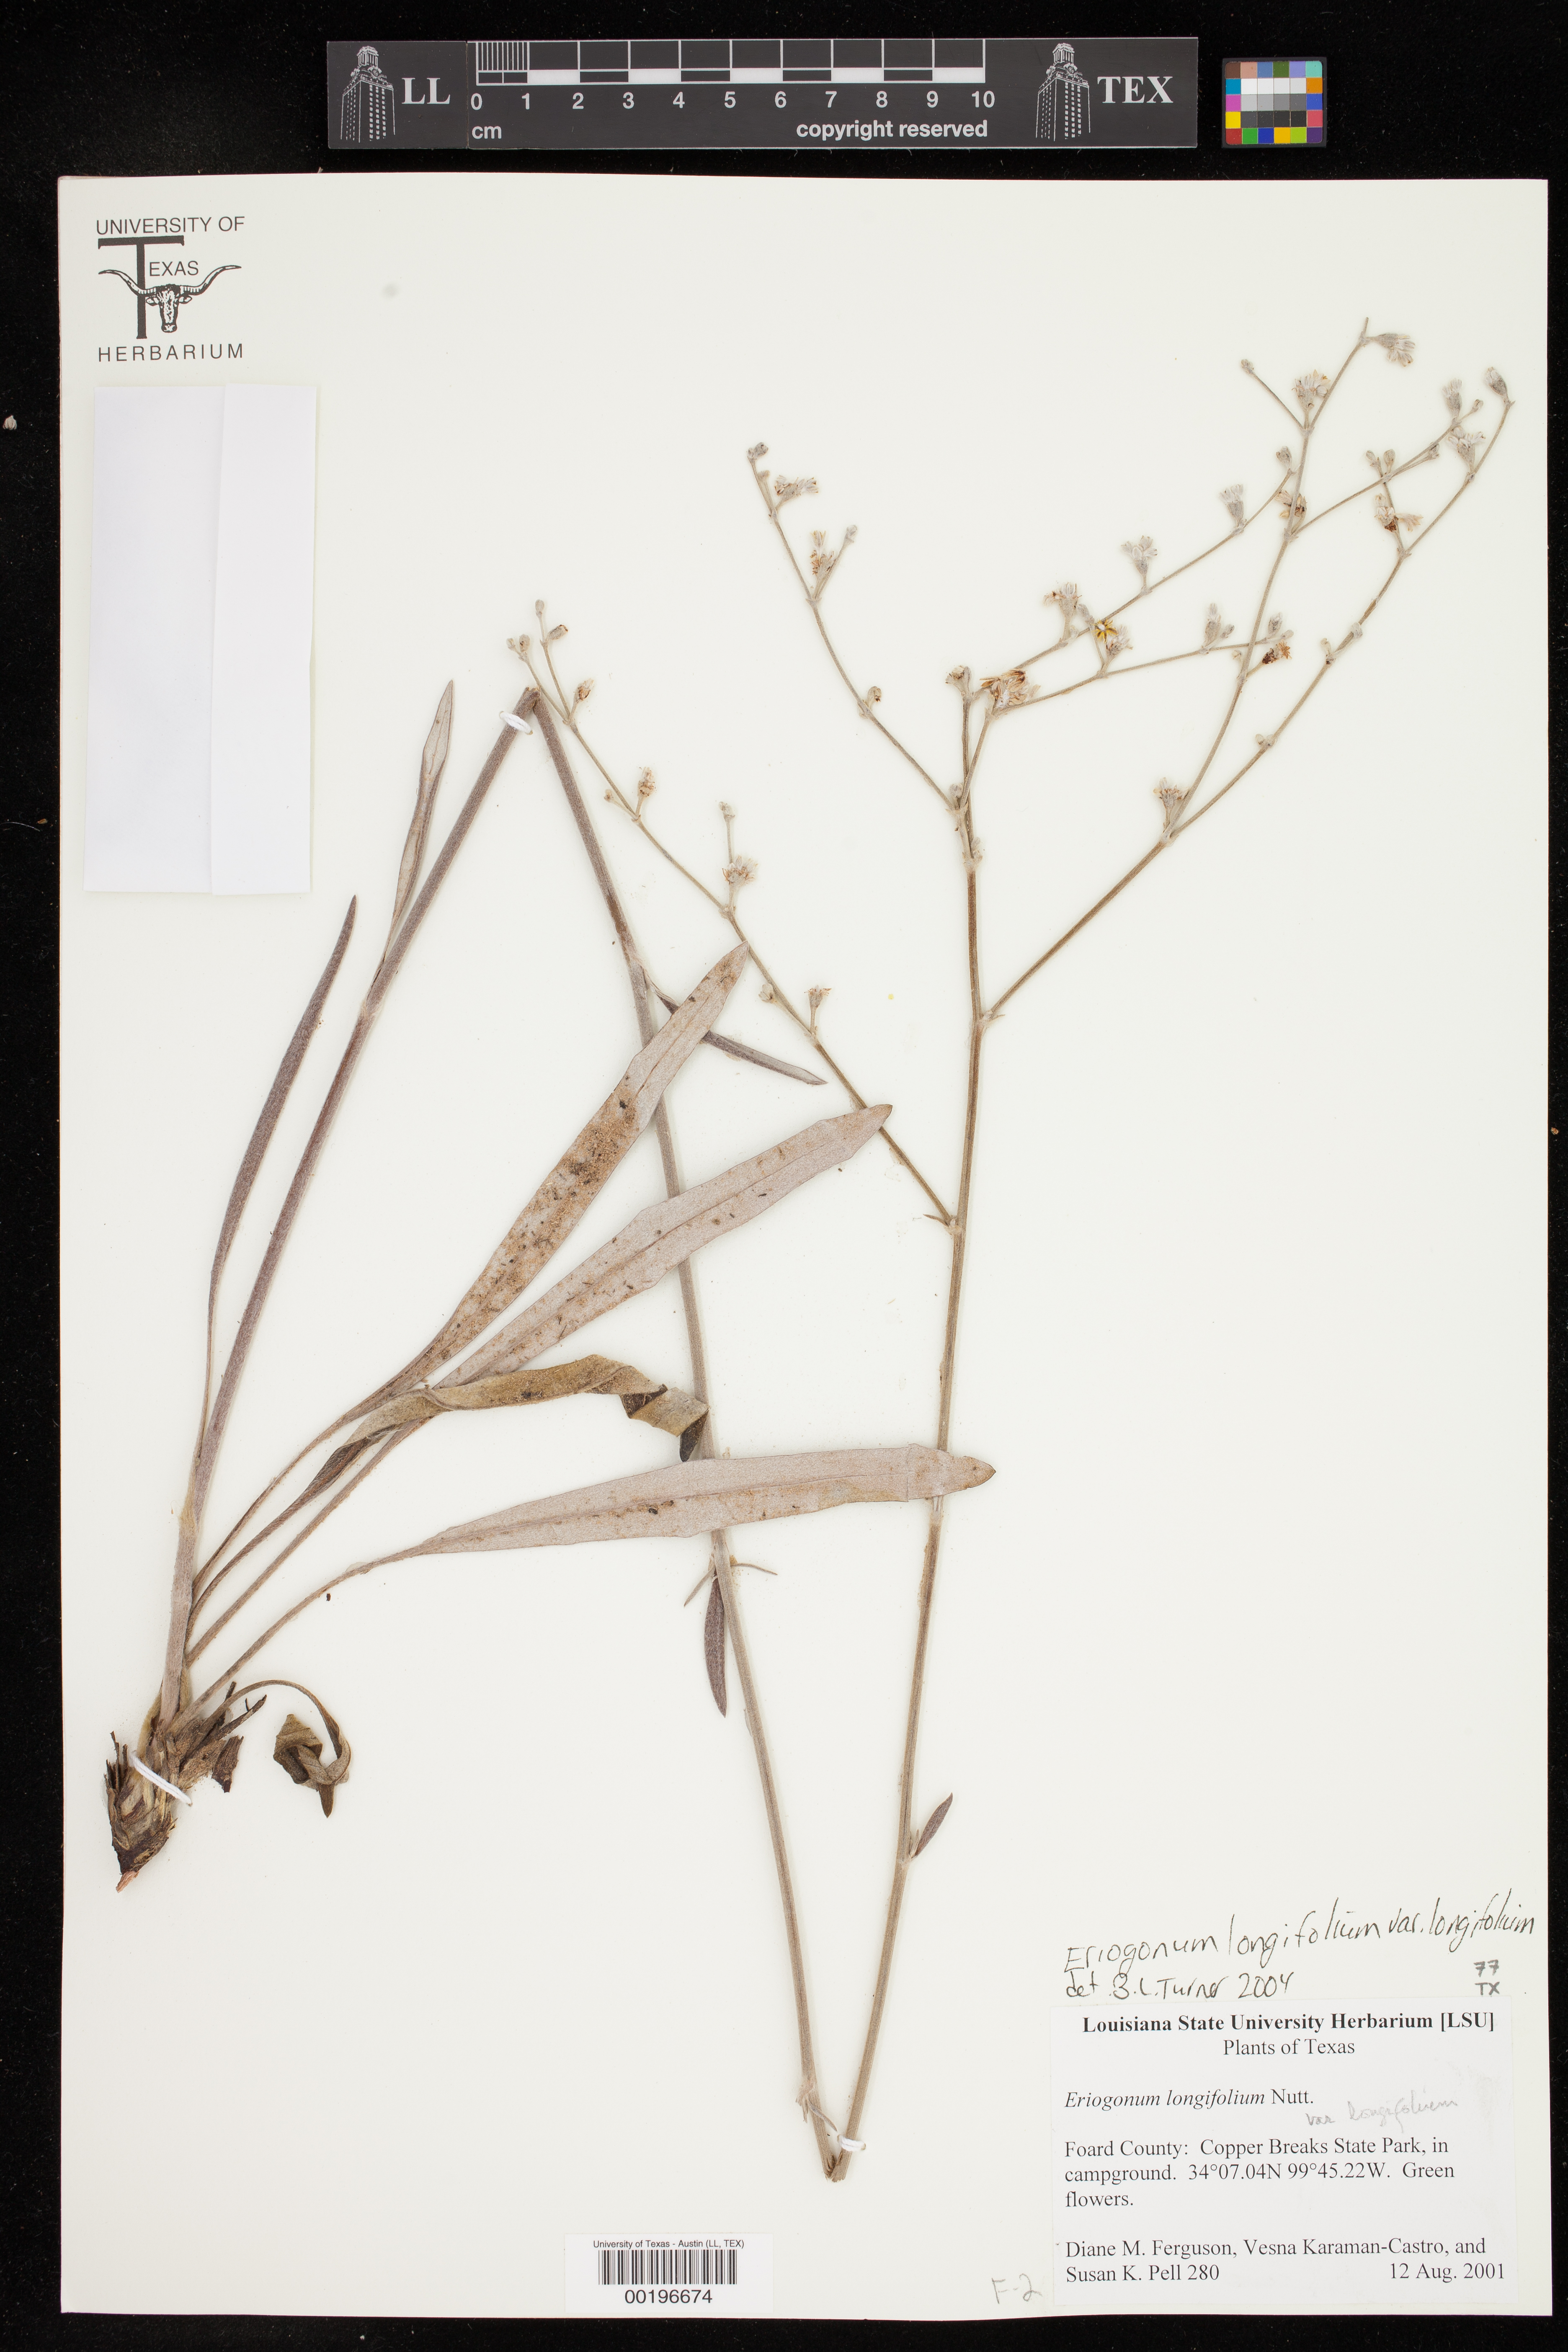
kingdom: Plantae
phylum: Tracheophyta
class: Magnoliopsida
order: Caryophyllales
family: Polygonaceae
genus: Eriogonum
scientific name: Eriogonum longifolium
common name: Longleaf wild buckwheat
